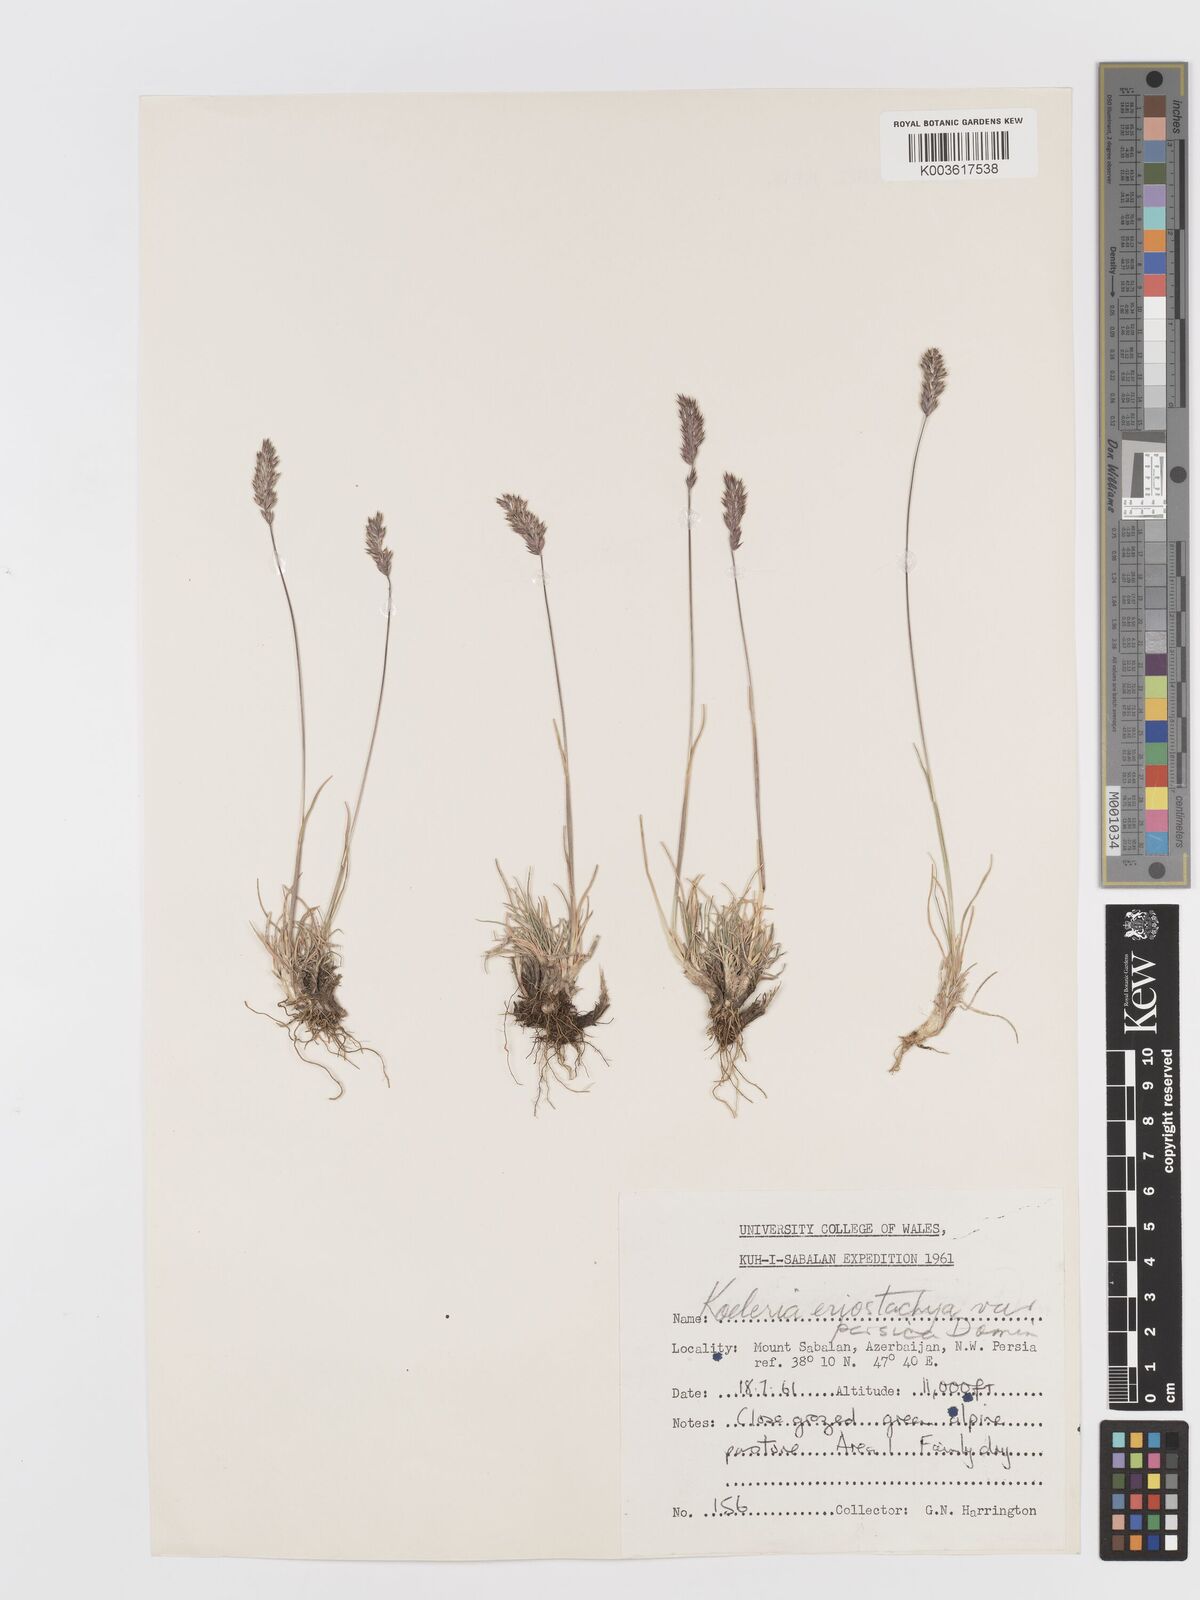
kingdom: Plantae
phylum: Tracheophyta
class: Liliopsida
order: Poales
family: Poaceae
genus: Koeleria
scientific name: Koeleria eriostachya
